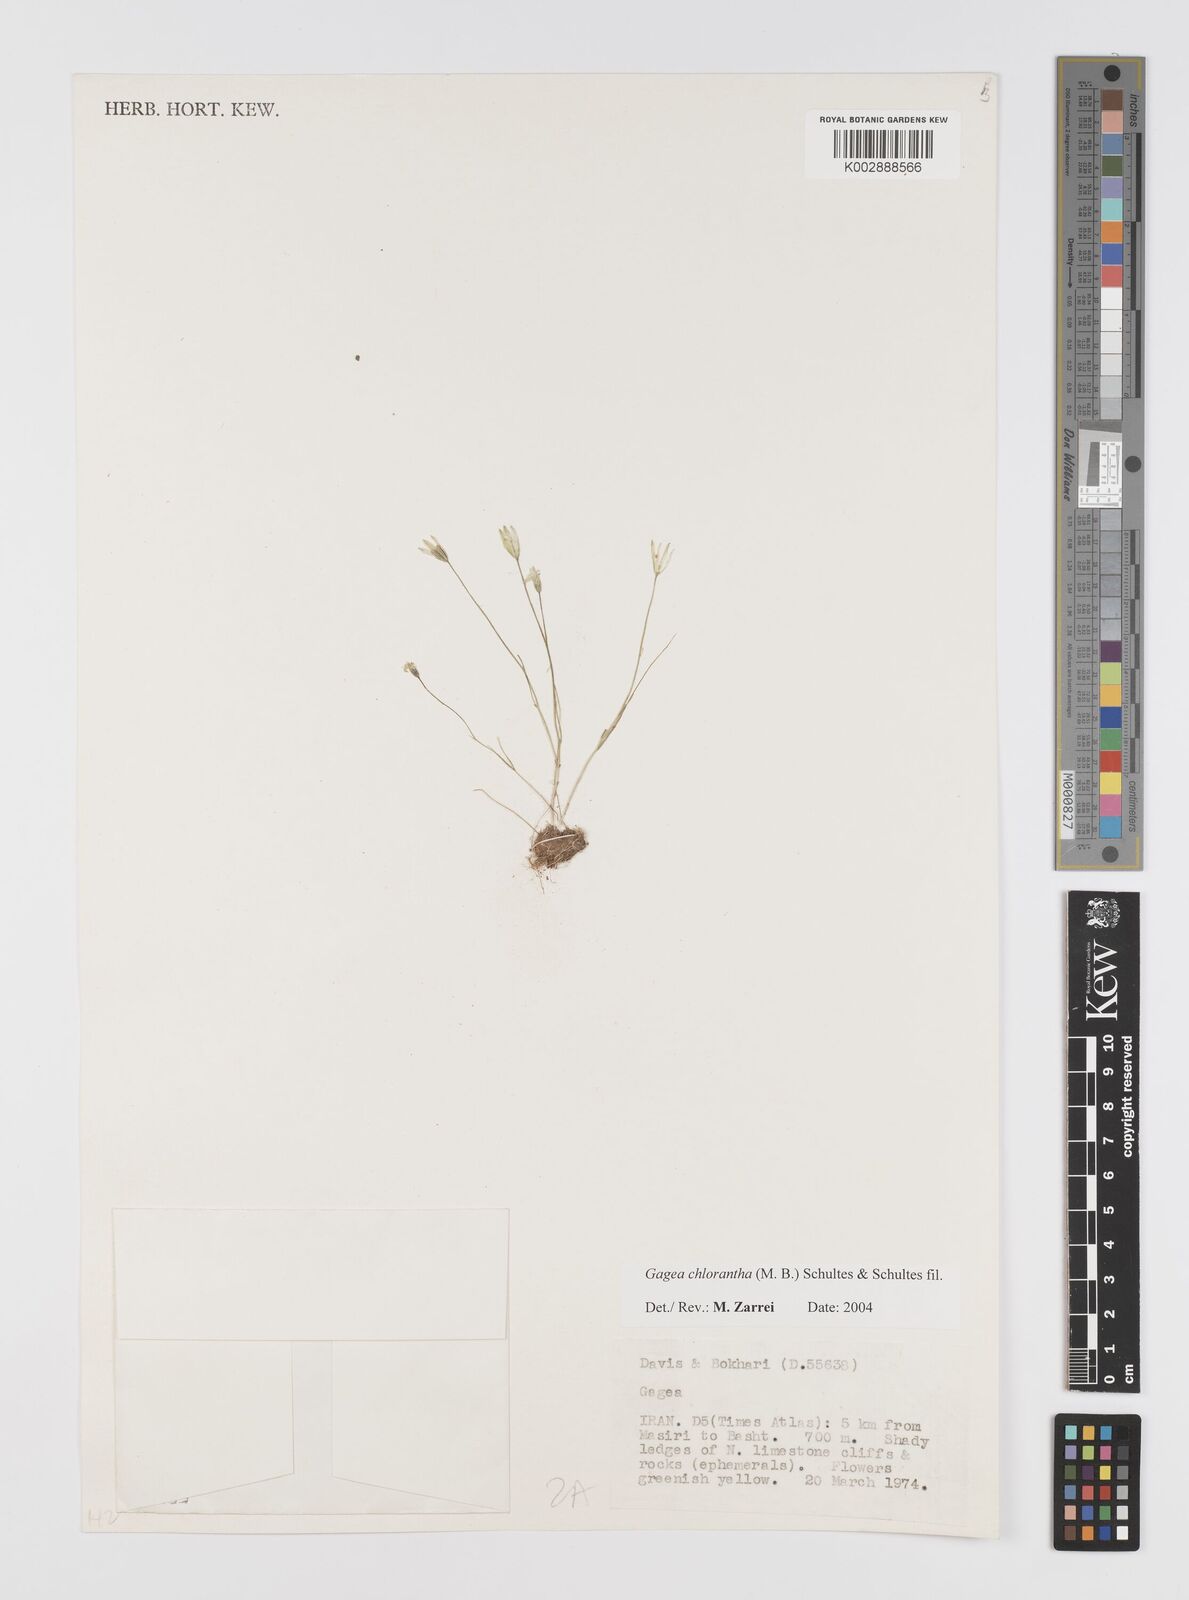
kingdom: Plantae
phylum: Tracheophyta
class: Liliopsida
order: Liliales
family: Liliaceae
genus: Gagea
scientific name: Gagea chlorantha
